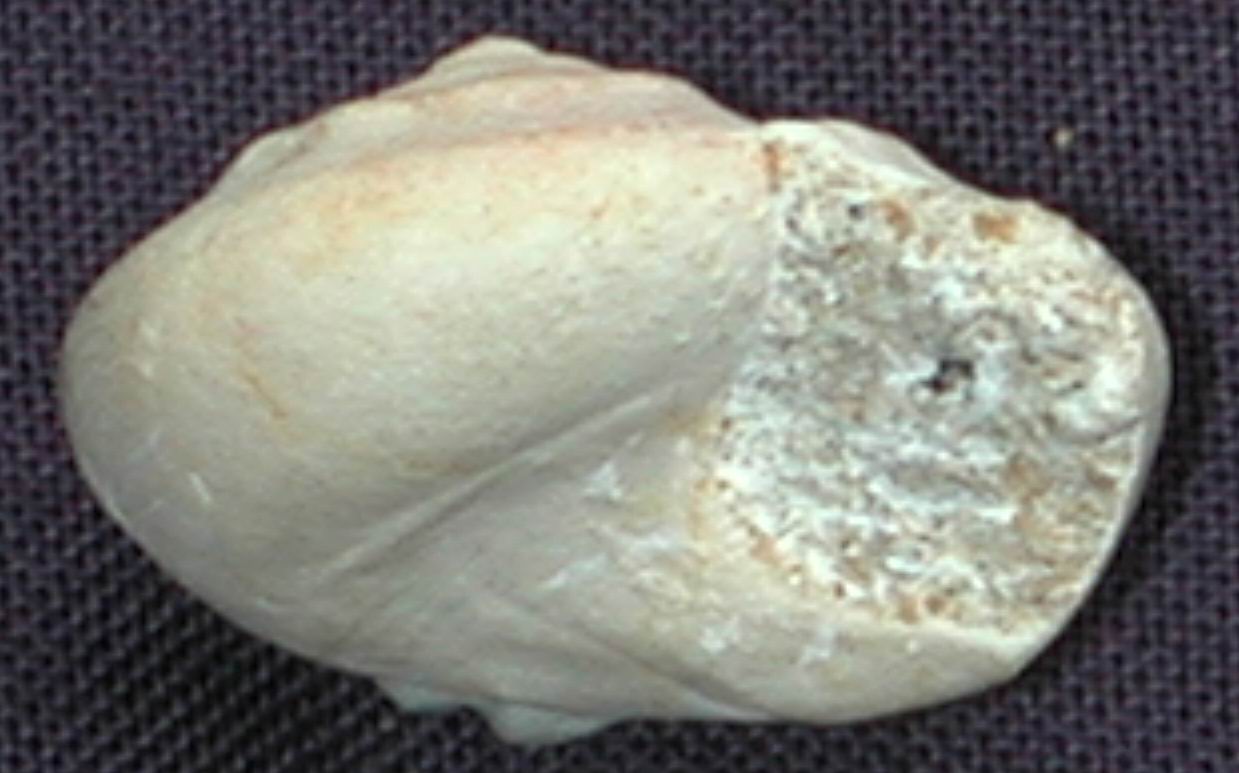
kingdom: Animalia
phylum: Mollusca
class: Gastropoda
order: Pleurotomariida
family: Ptychomphalidae
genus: Ptychomphalus
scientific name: Ptychomphalus Pleurotomaria wehenkeli
